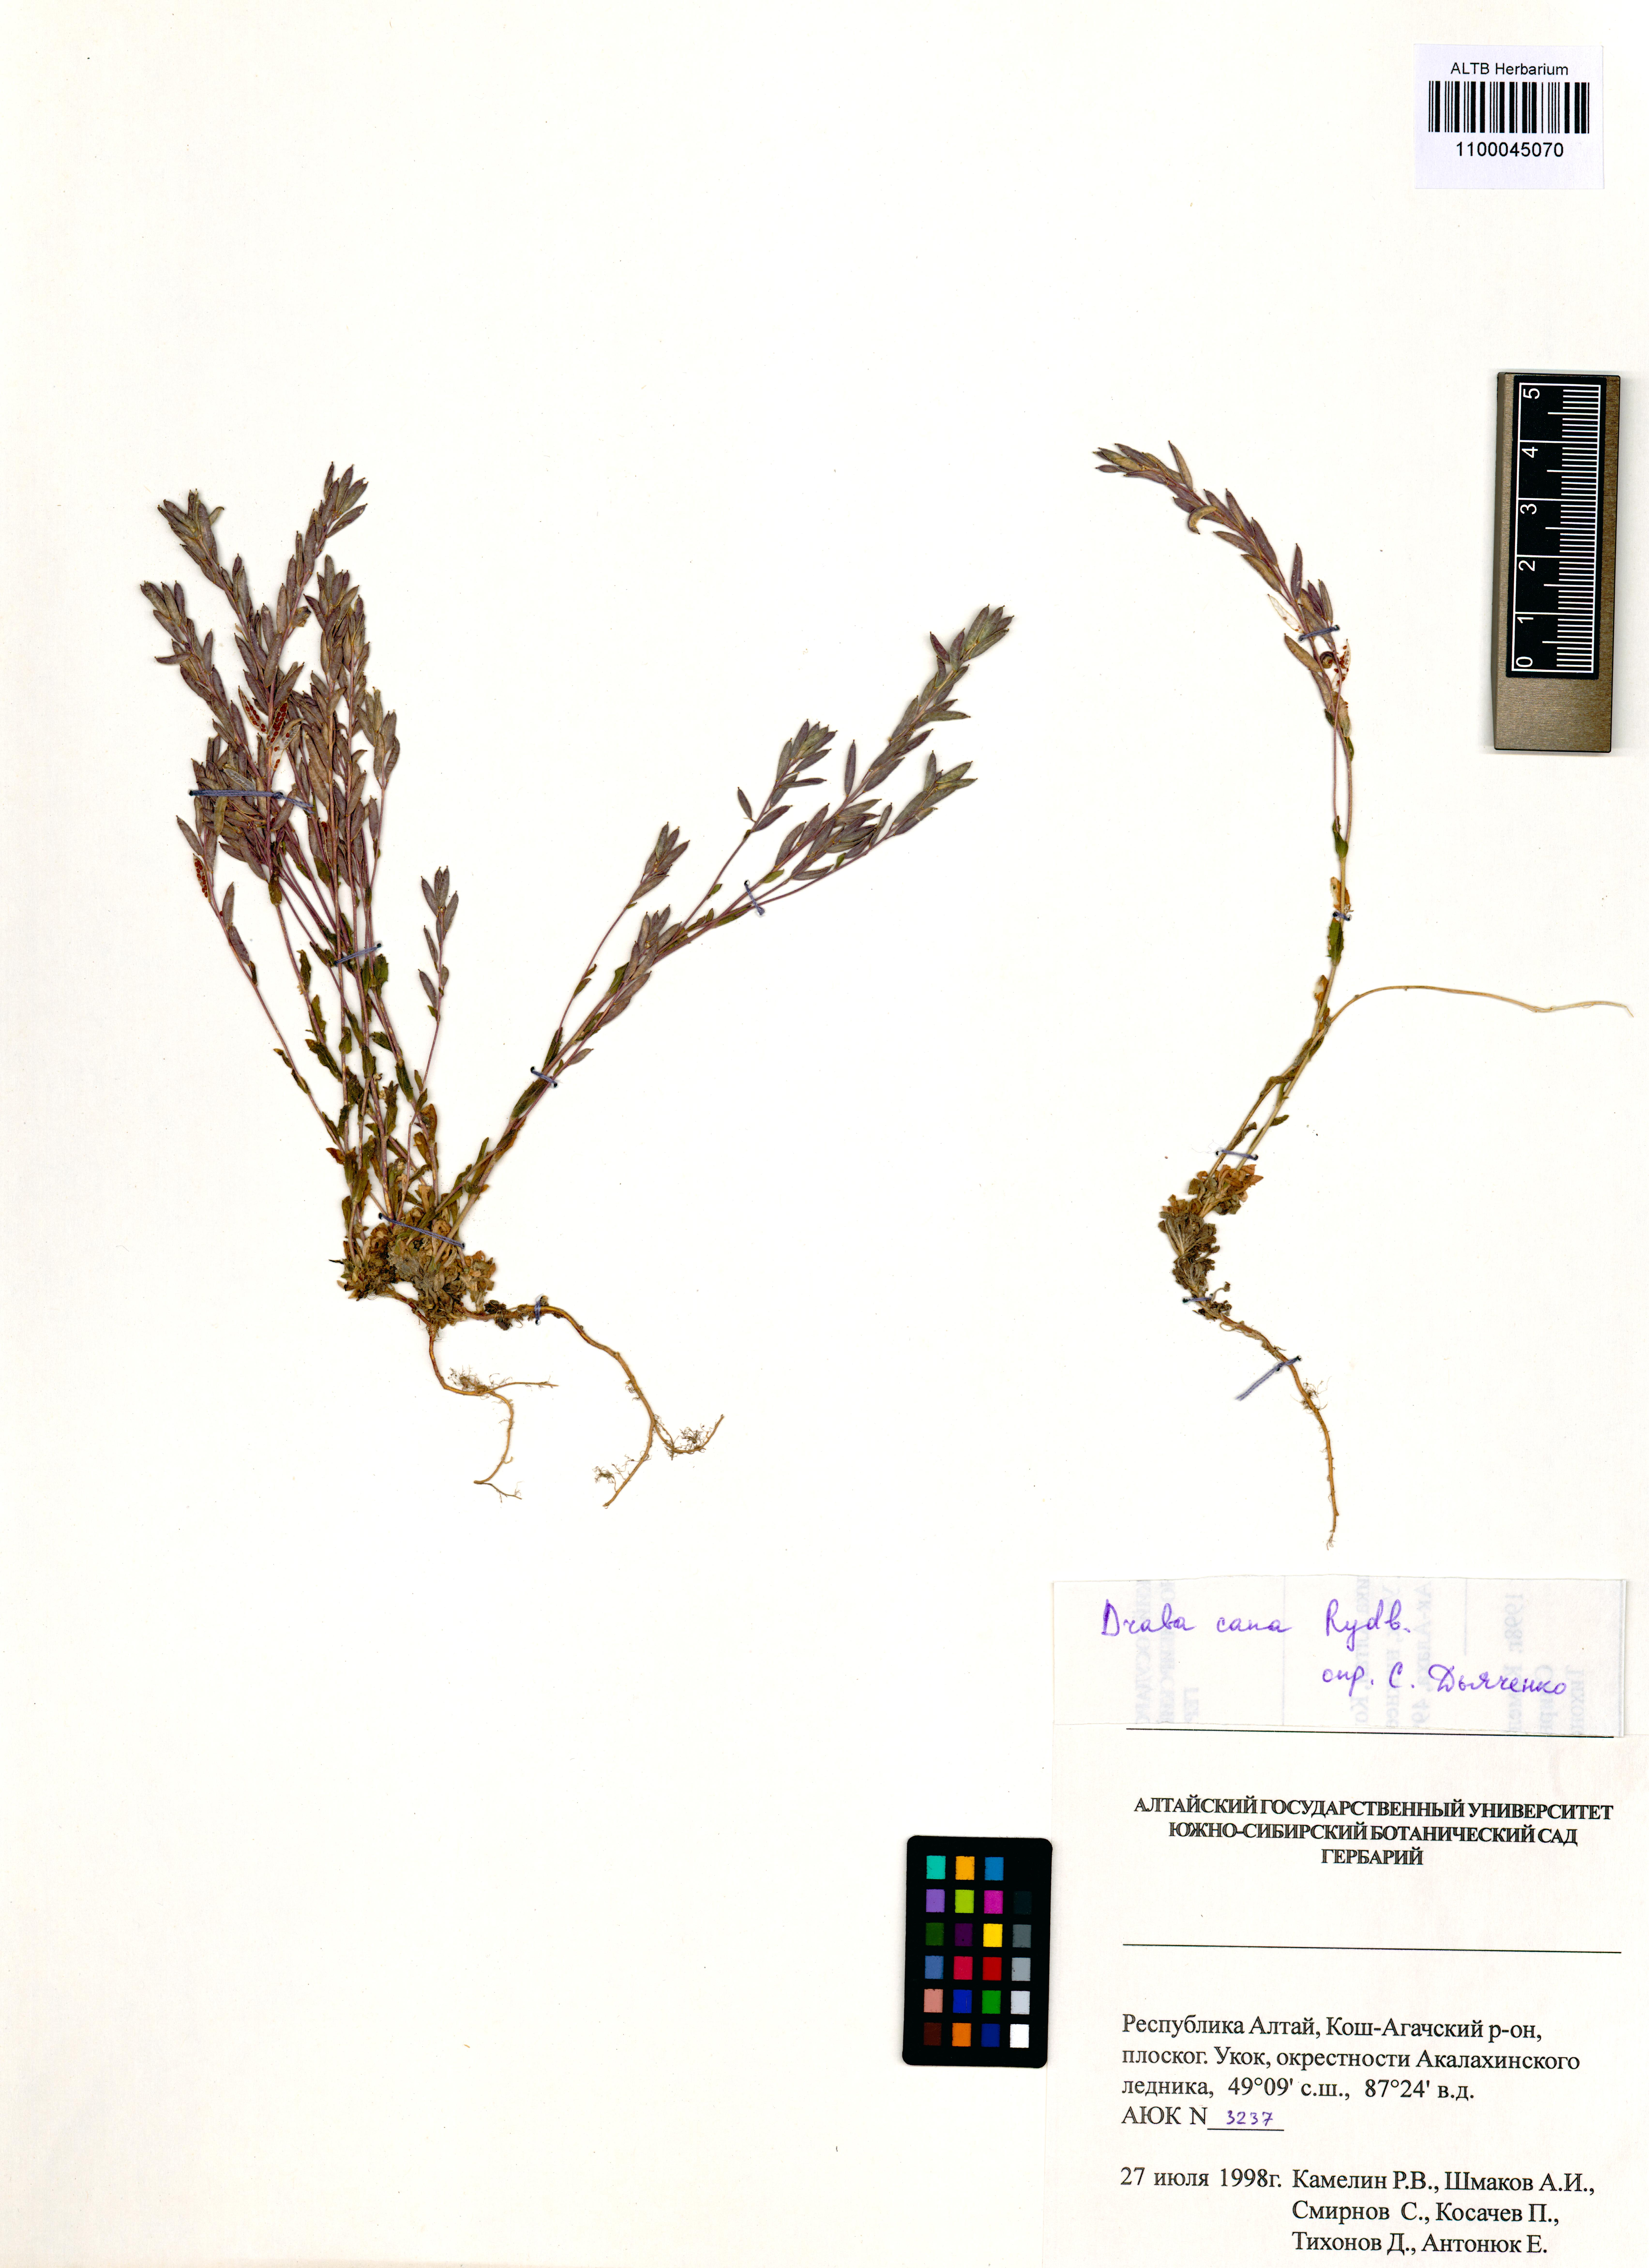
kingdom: Plantae
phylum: Tracheophyta
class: Magnoliopsida
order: Brassicales
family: Brassicaceae
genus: Draba
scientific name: Draba cana
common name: Hoary draba
